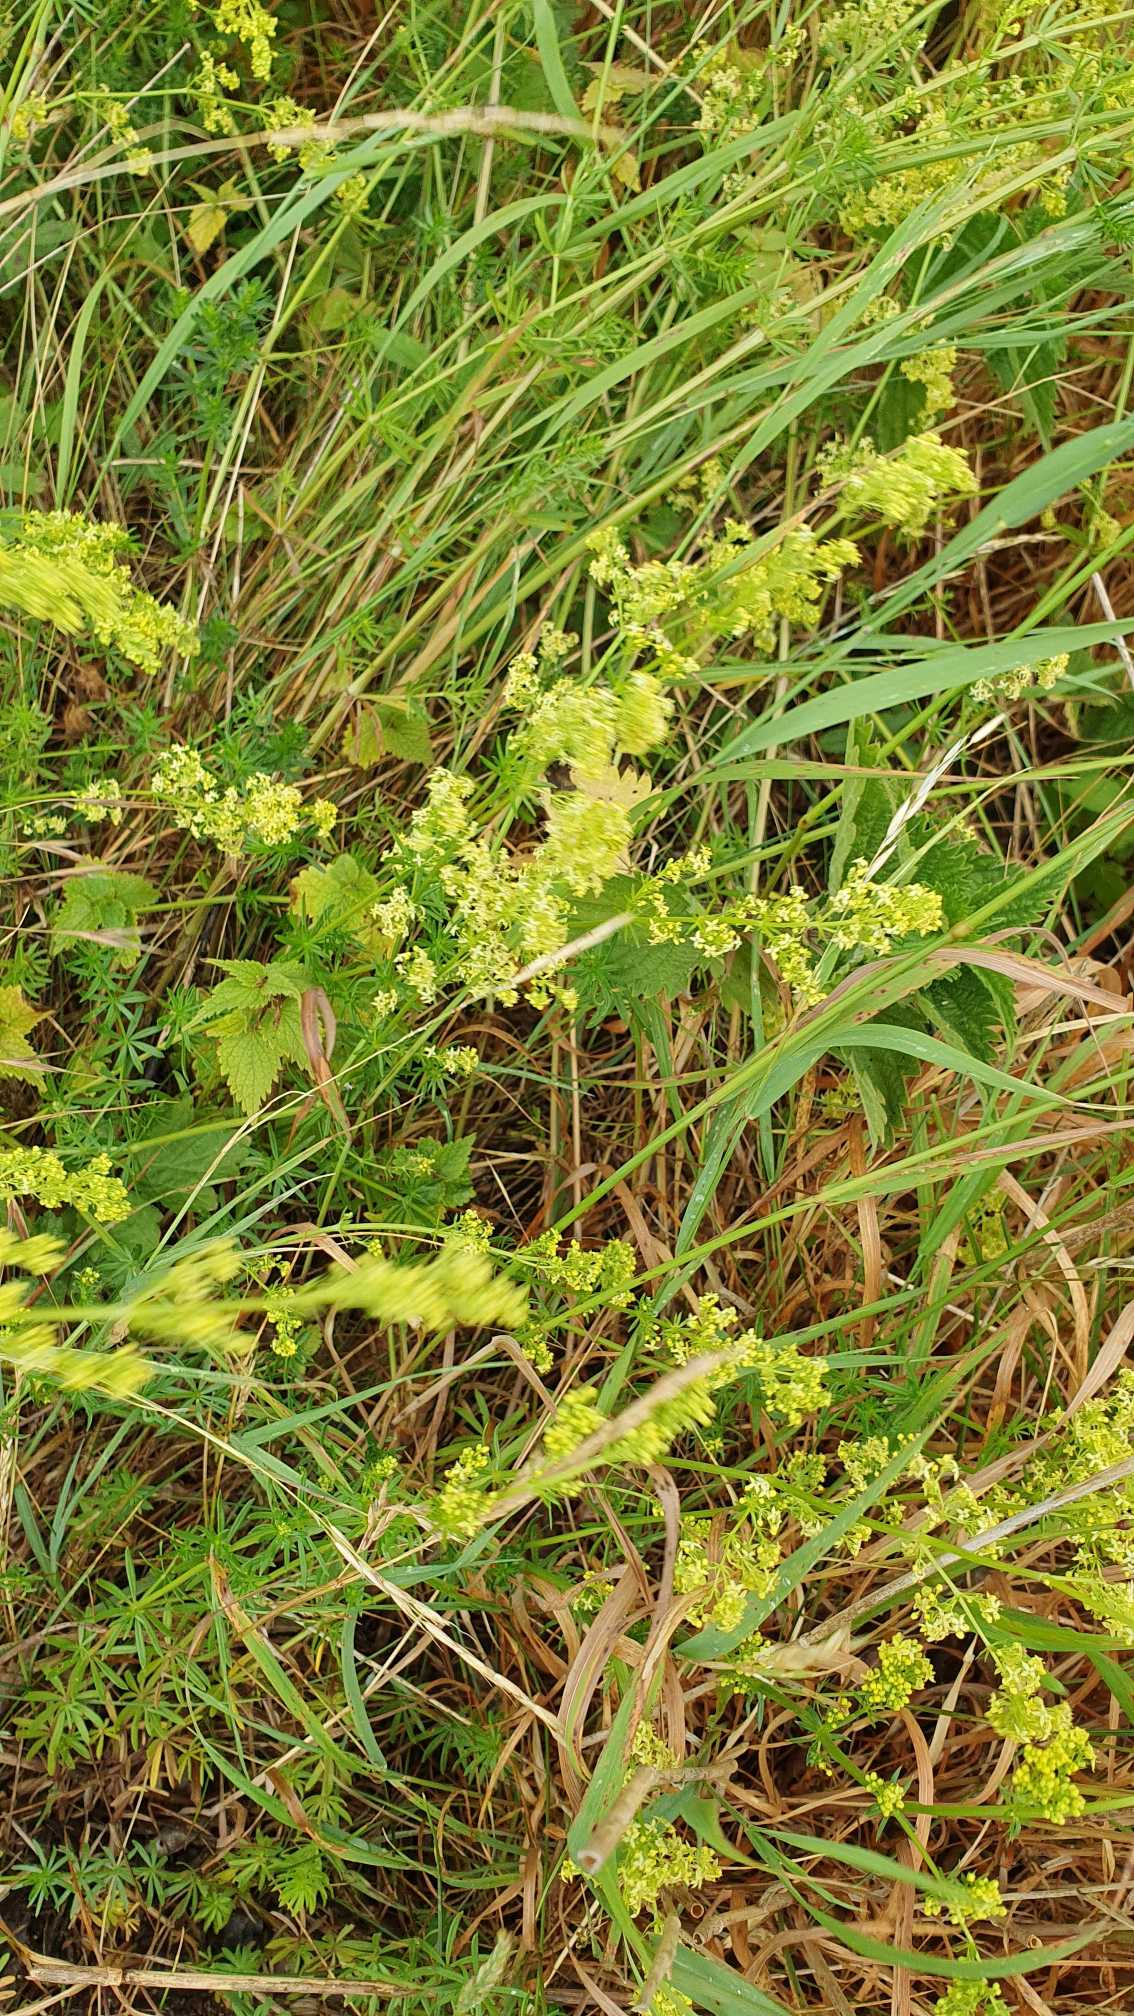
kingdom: Plantae
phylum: Tracheophyta
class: Magnoliopsida
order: Gentianales
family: Rubiaceae
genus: Galium
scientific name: Galium verum
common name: Gul snerre
